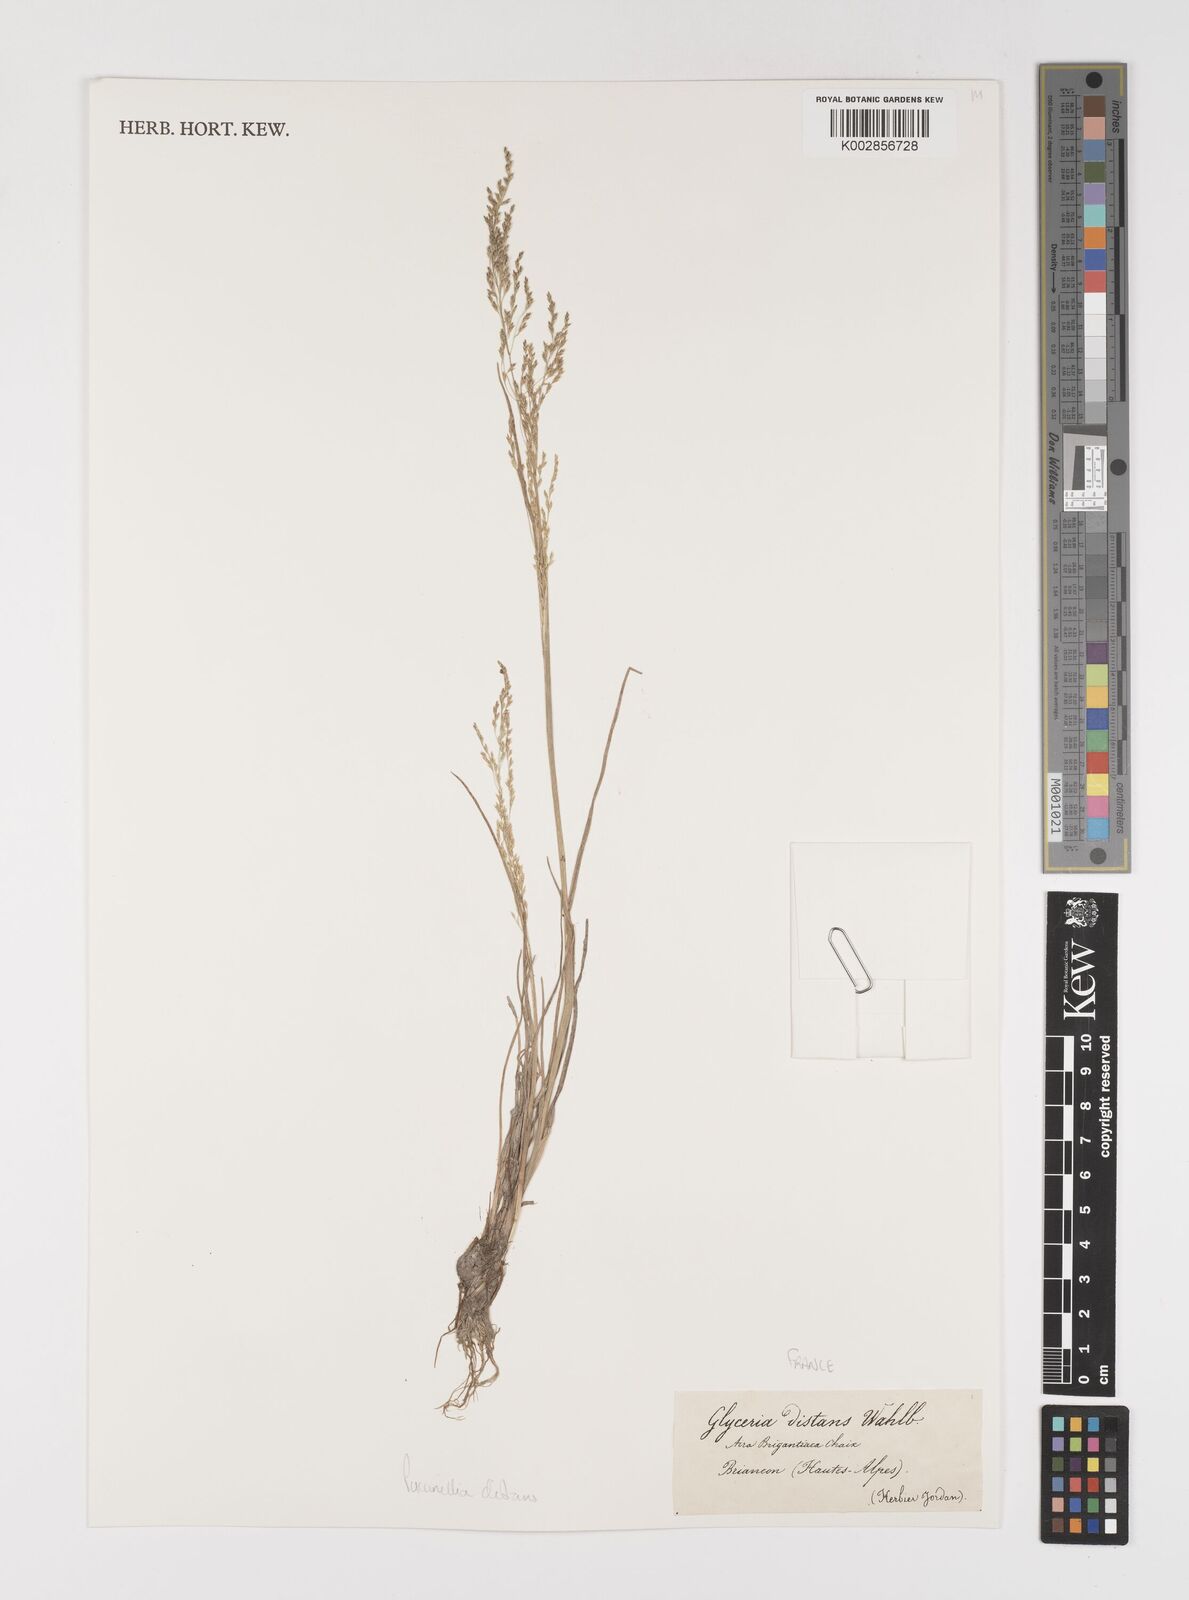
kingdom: Plantae
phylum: Tracheophyta
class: Liliopsida
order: Poales
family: Poaceae
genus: Puccinellia
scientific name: Puccinellia distans
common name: Weeping alkaligrass
